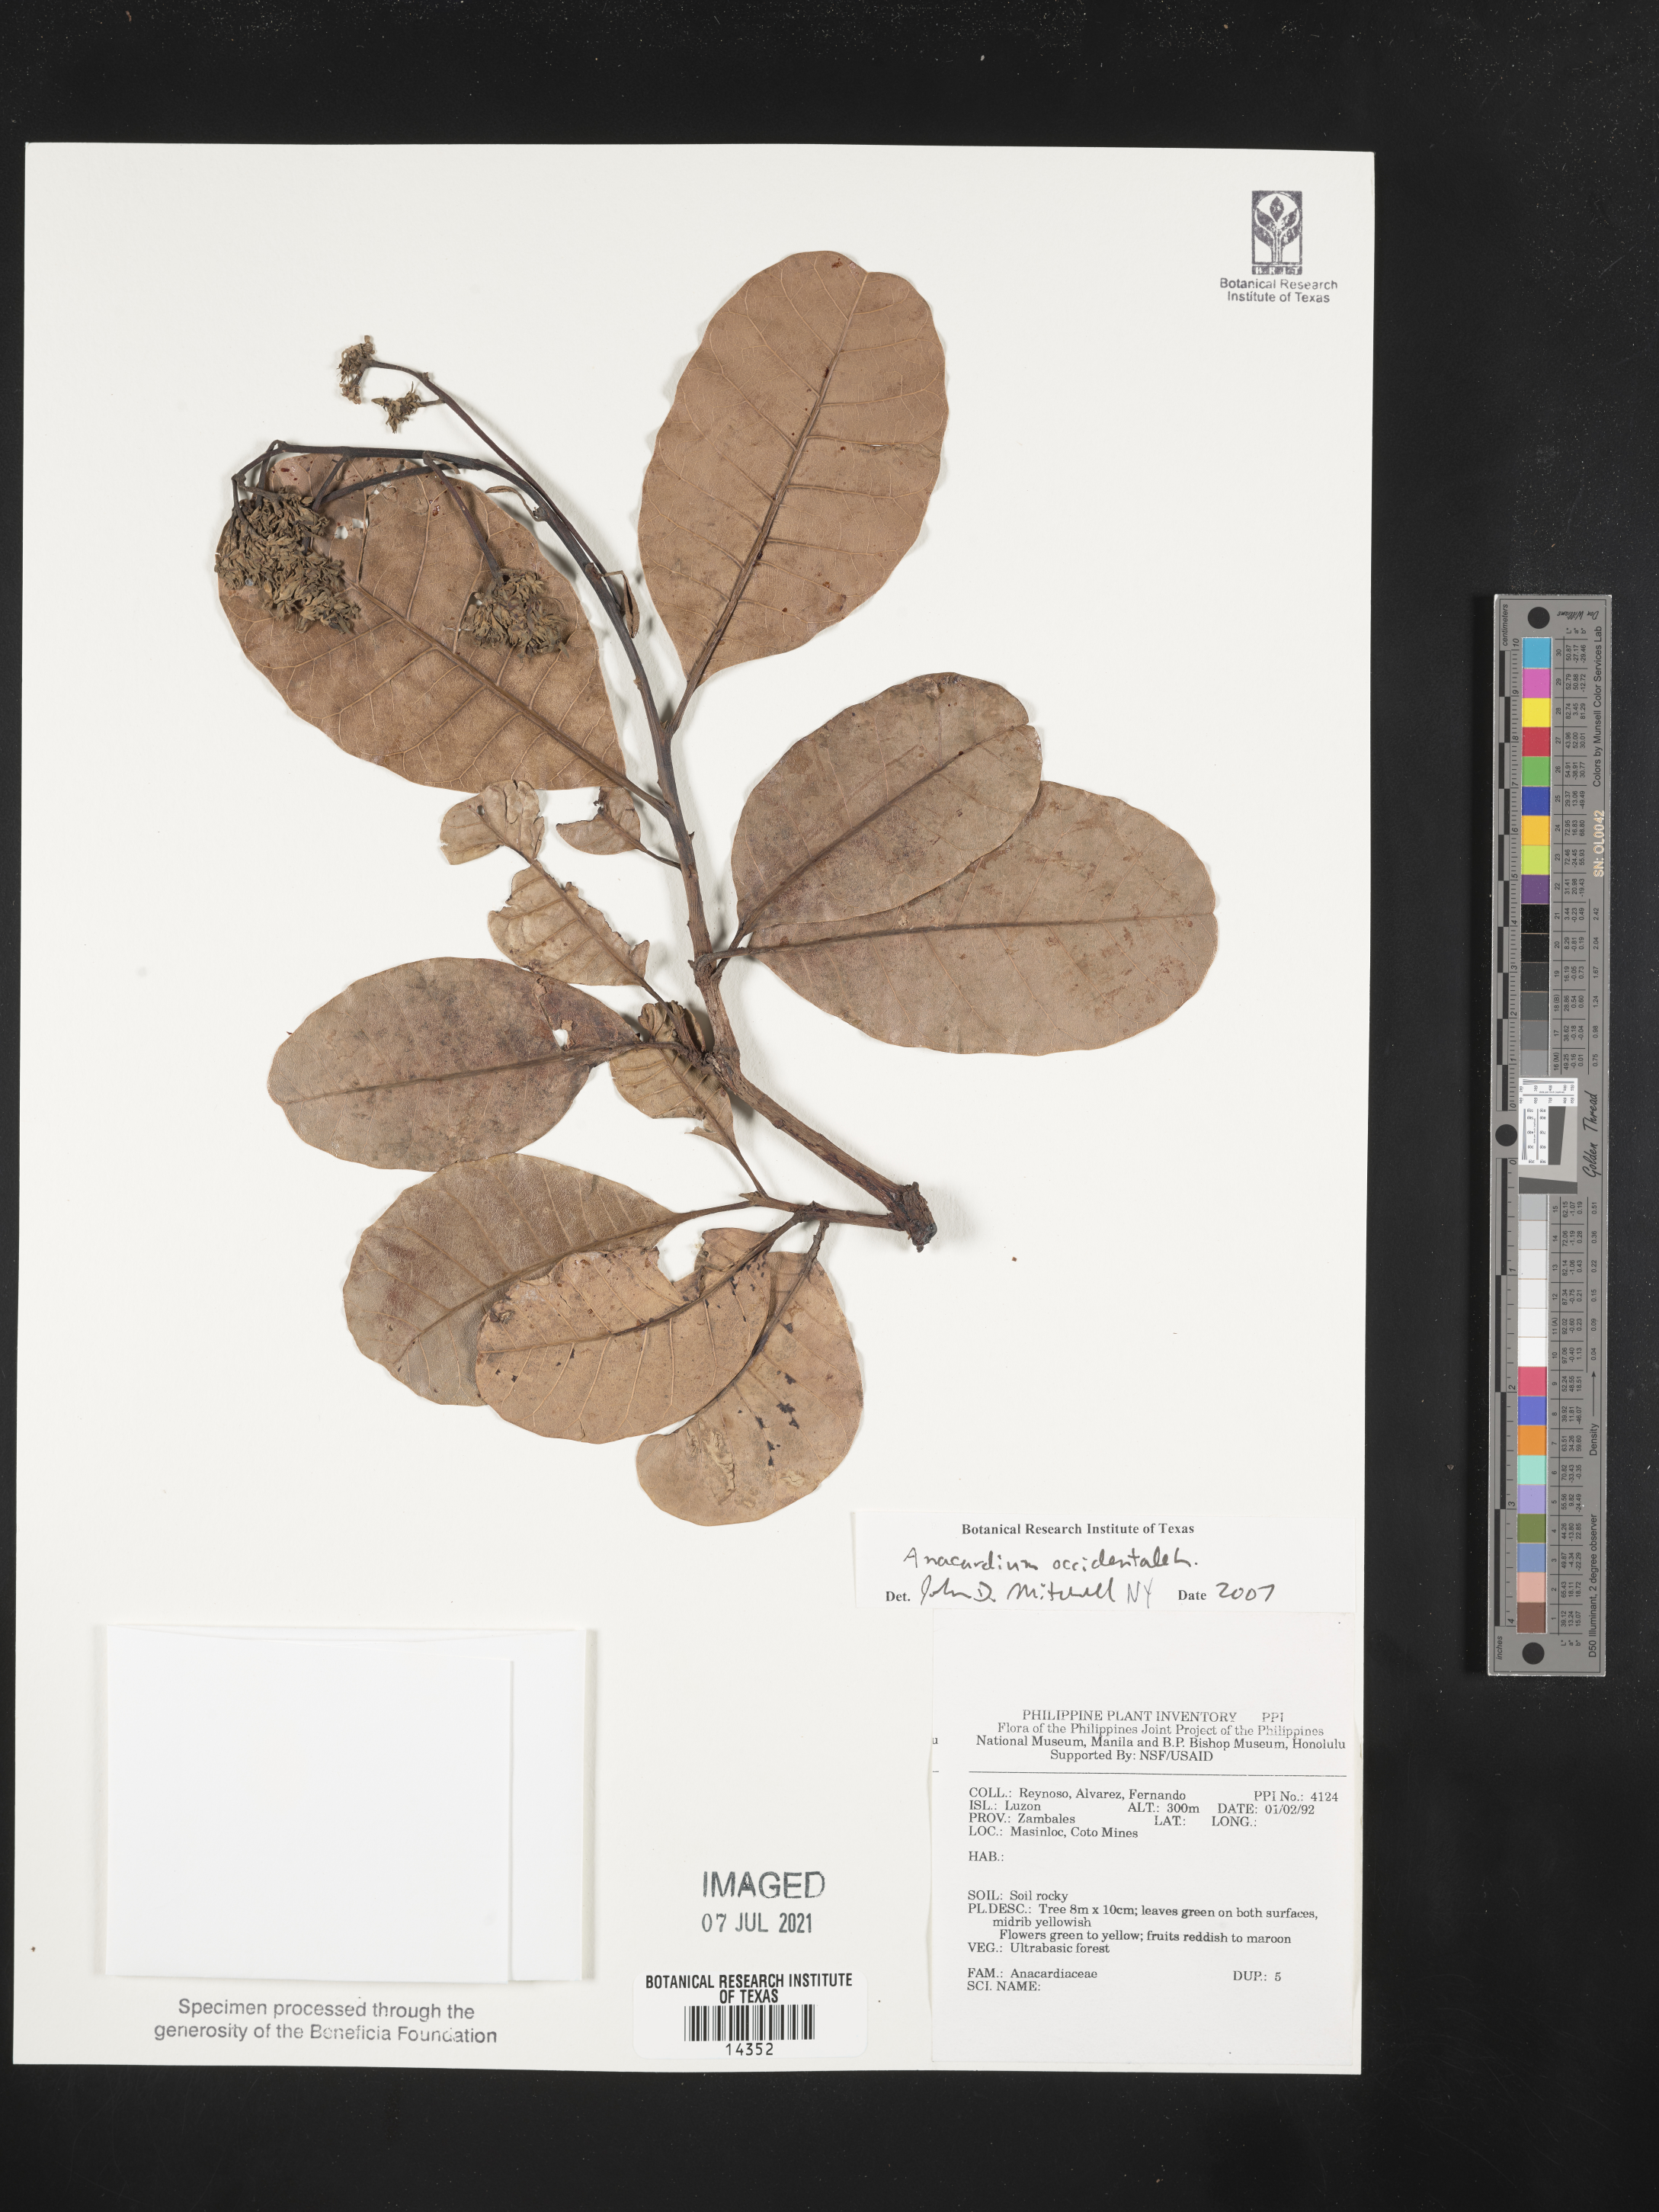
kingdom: Plantae
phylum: Tracheophyta
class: Magnoliopsida
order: Sapindales
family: Anacardiaceae
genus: Anacardium
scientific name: Anacardium occidentale
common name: Cashew
